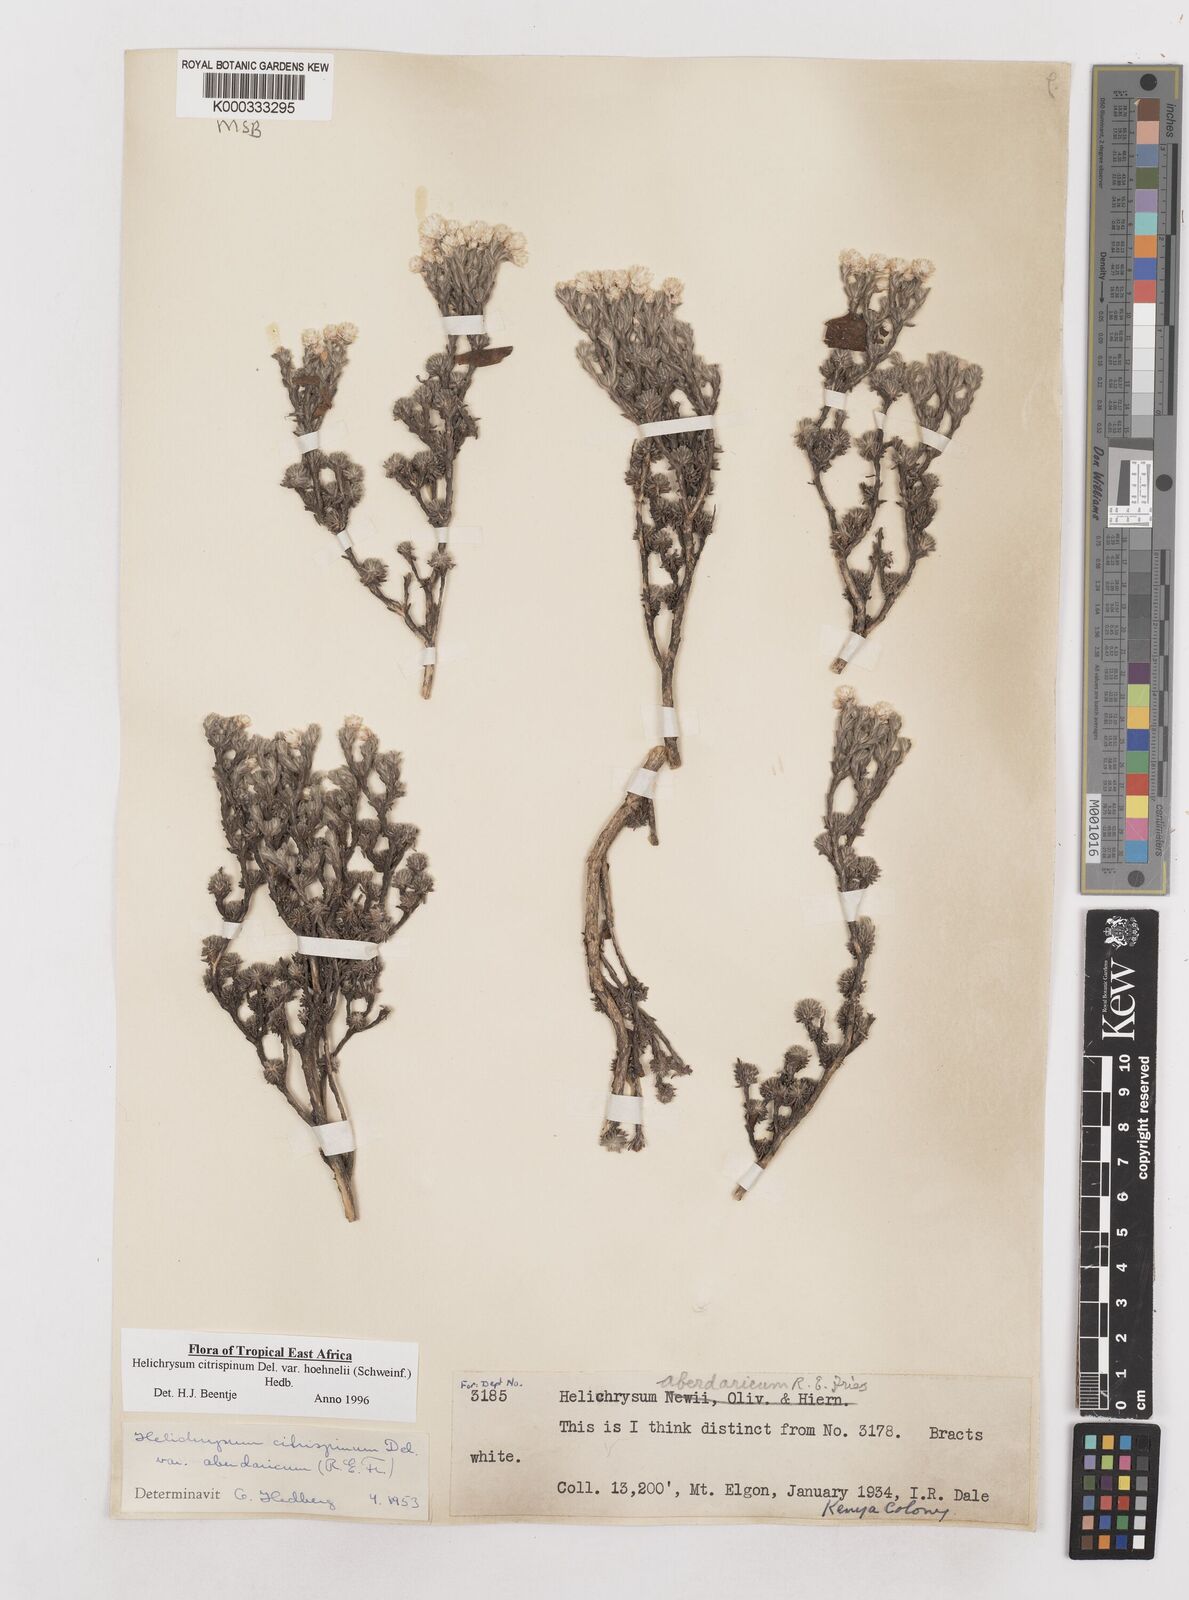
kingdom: Plantae
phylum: Tracheophyta
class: Magnoliopsida
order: Asterales
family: Asteraceae
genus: Helichrysum
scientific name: Helichrysum citrispinum
